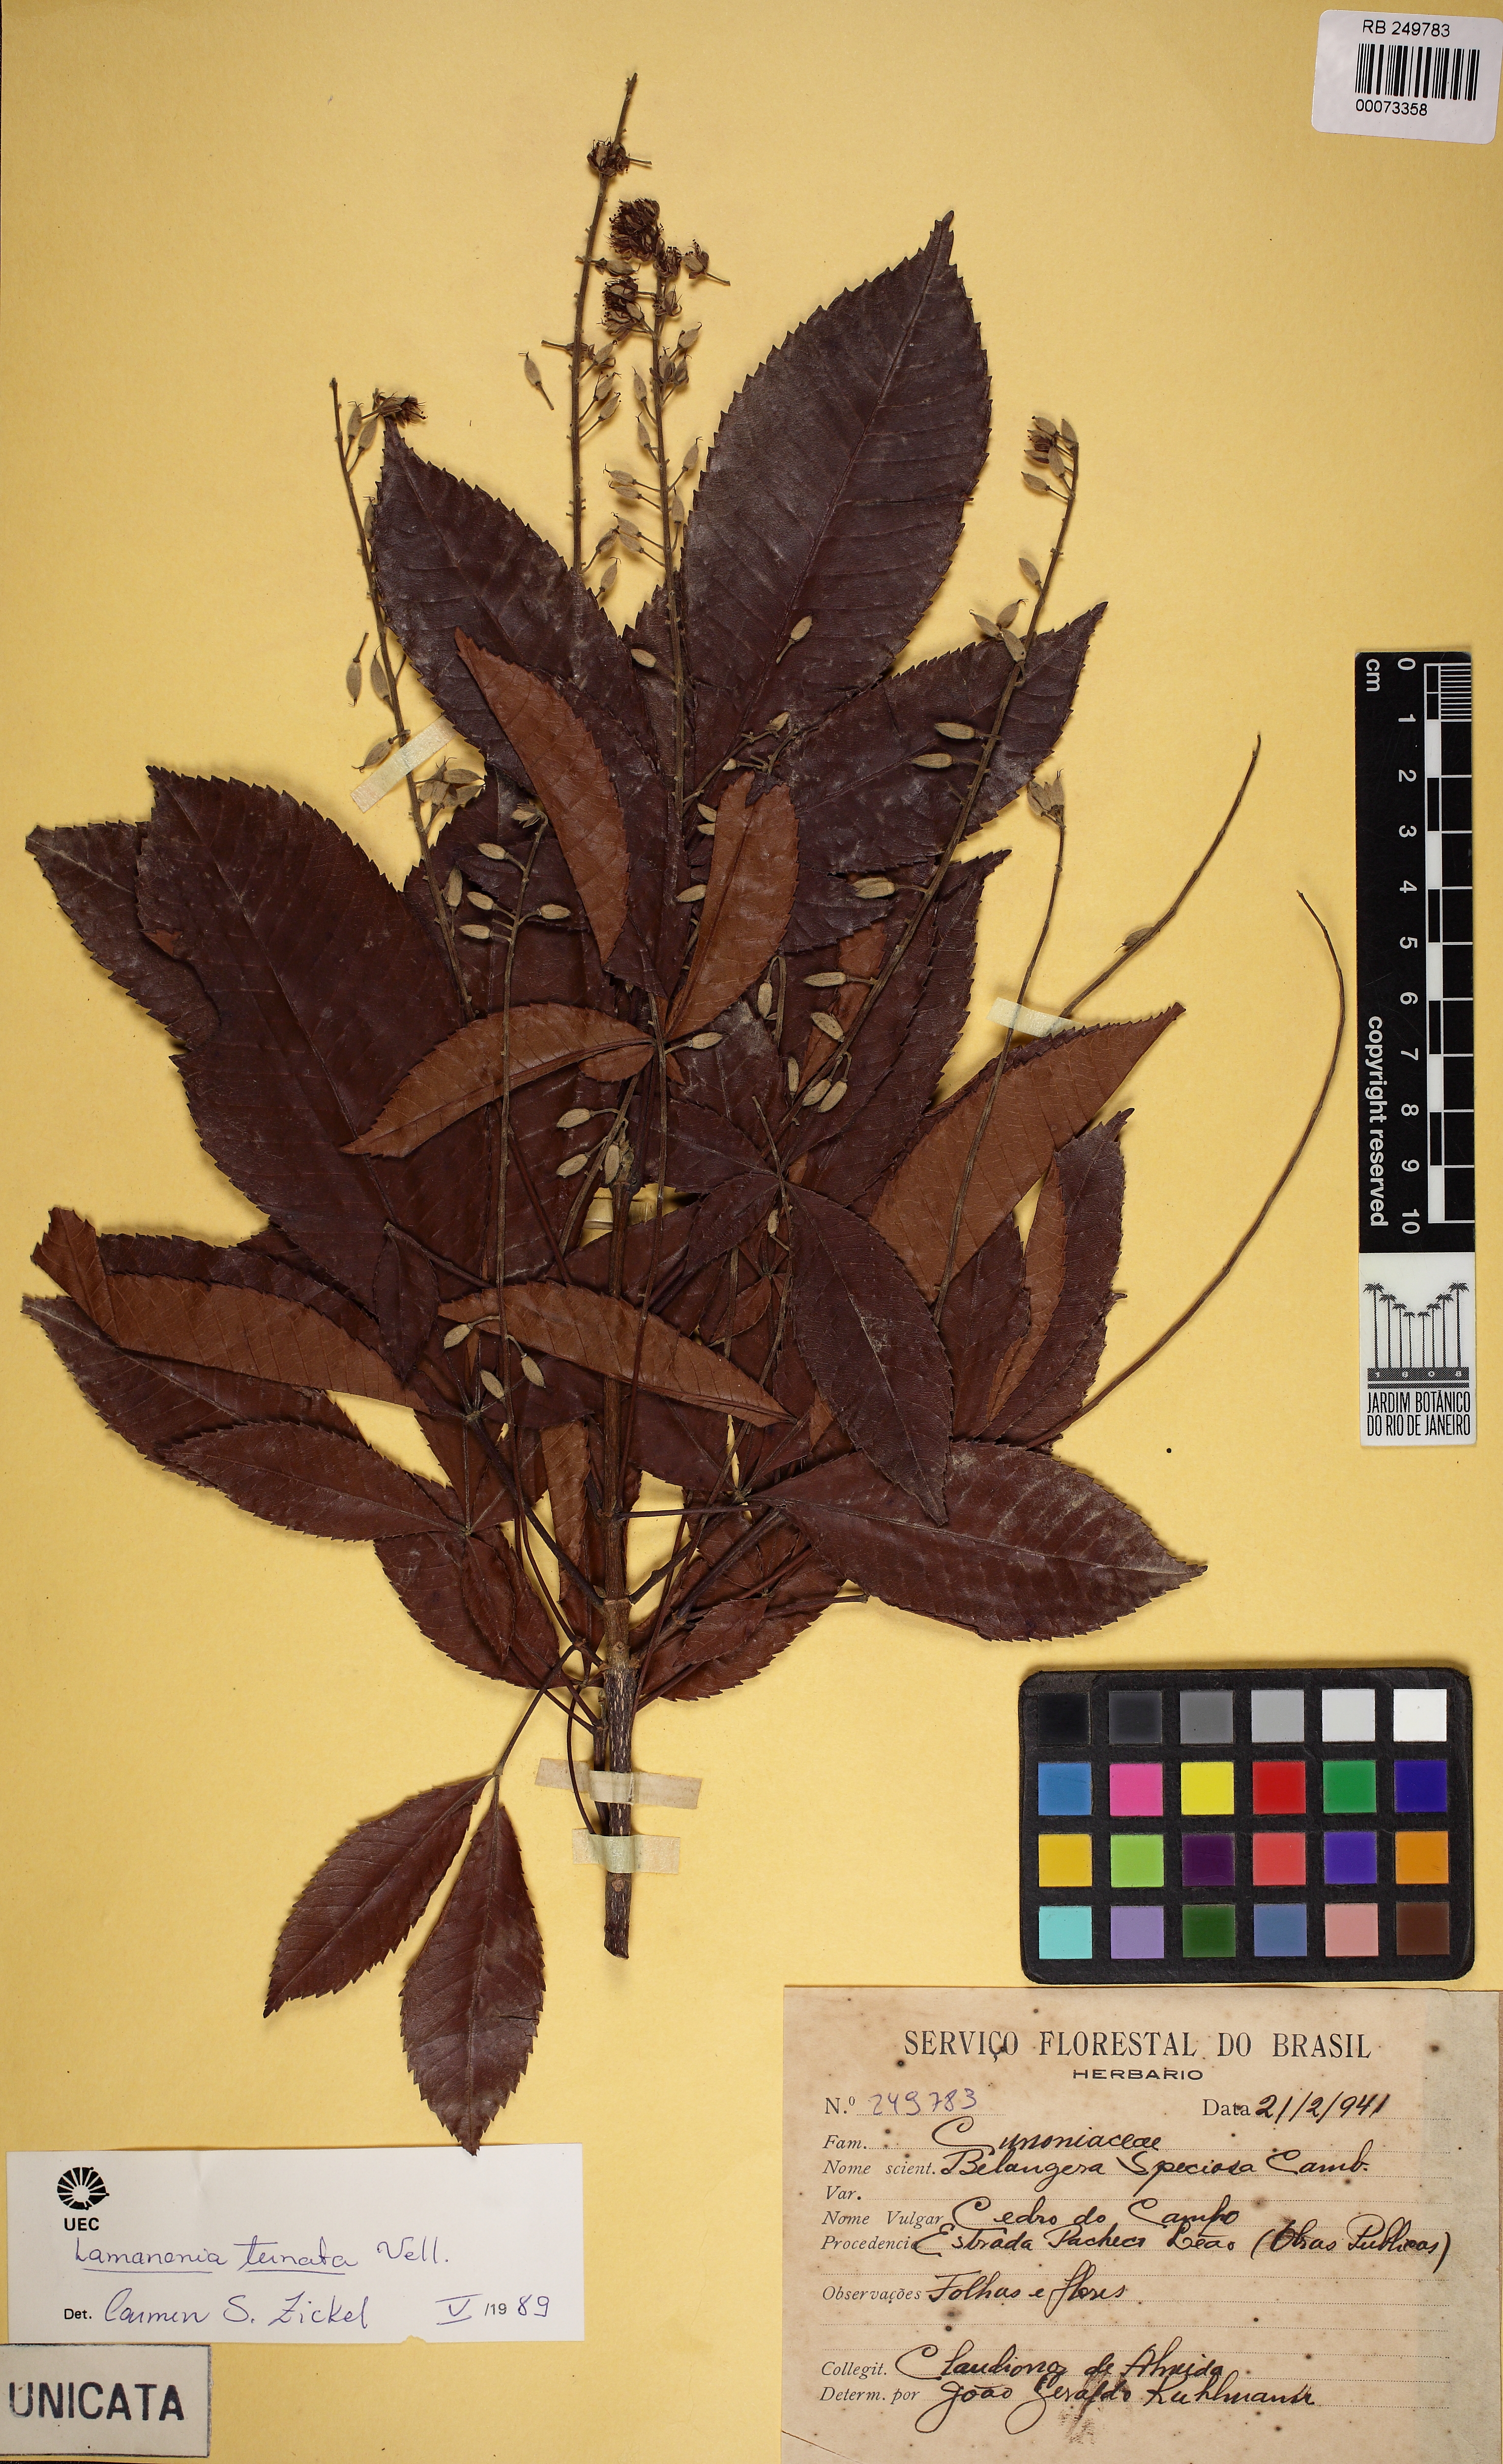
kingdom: Plantae
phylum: Tracheophyta
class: Magnoliopsida
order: Oxalidales
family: Cunoniaceae
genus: Lamanonia
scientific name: Lamanonia ternata
